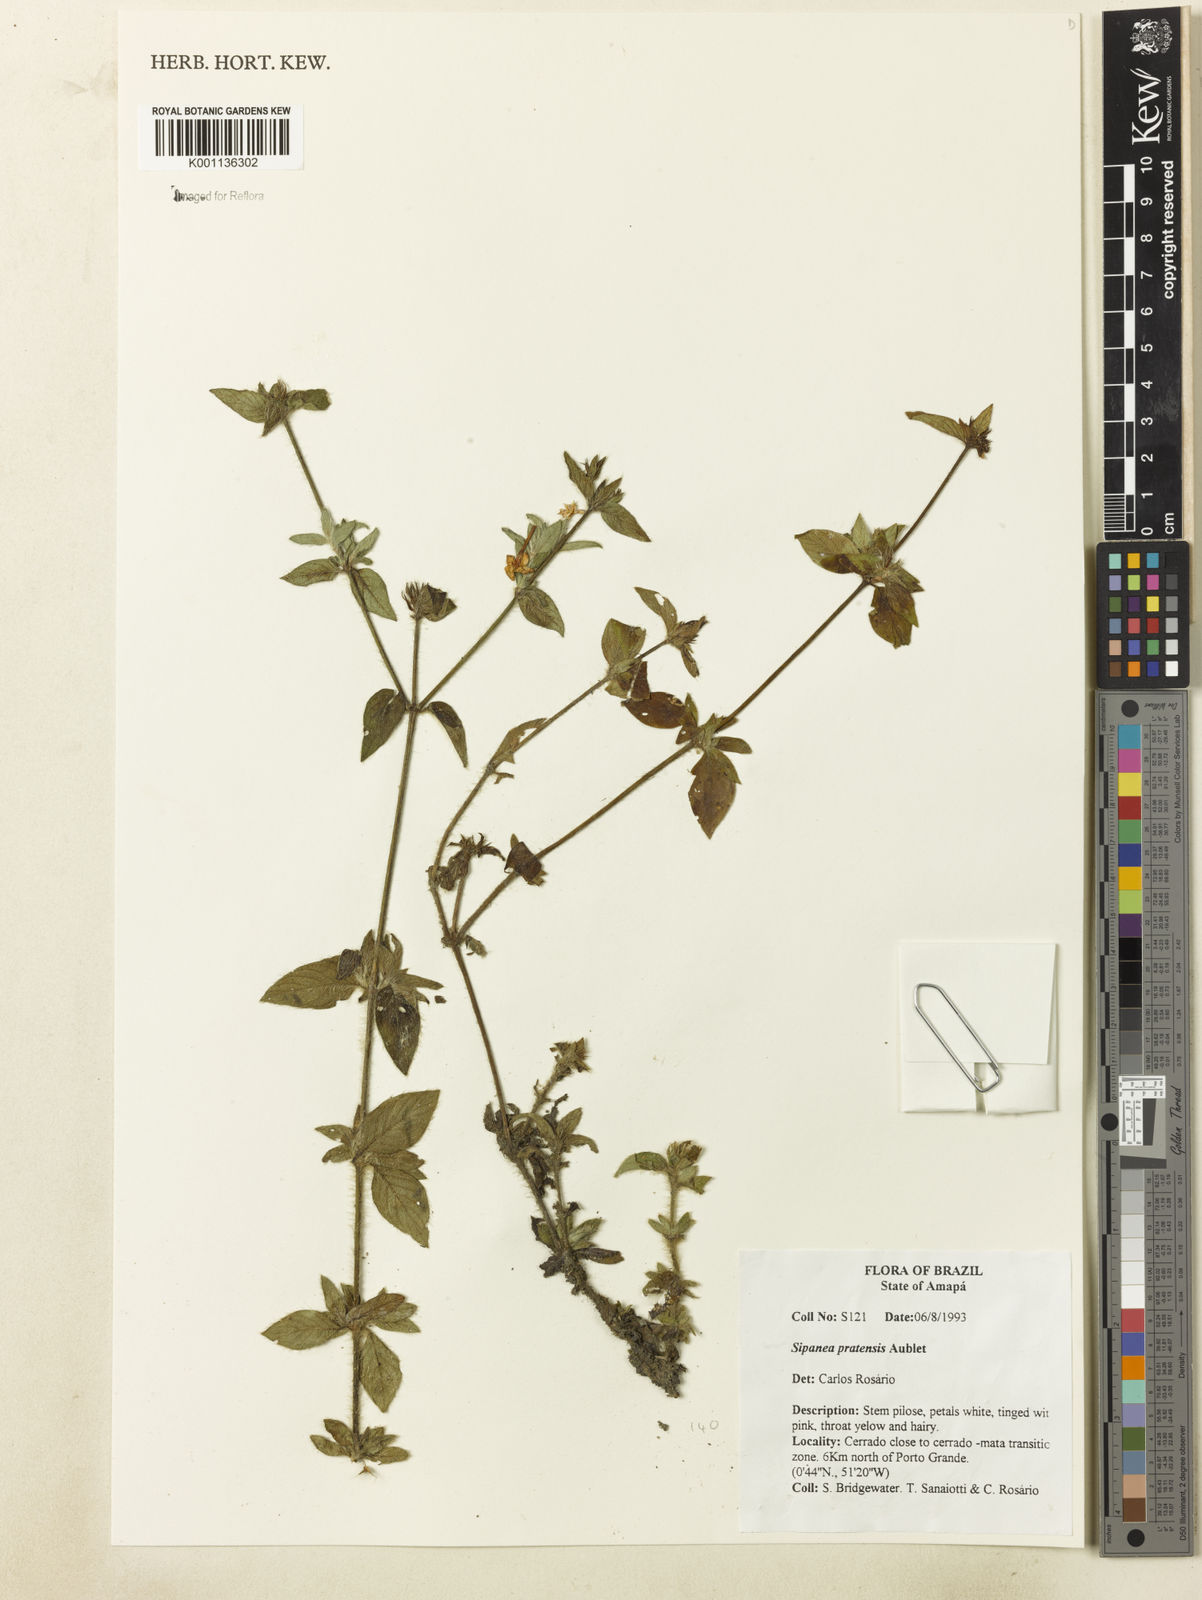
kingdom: Plantae
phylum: Tracheophyta
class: Magnoliopsida
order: Gentianales
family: Rubiaceae
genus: Sipanea
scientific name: Sipanea pratensis
